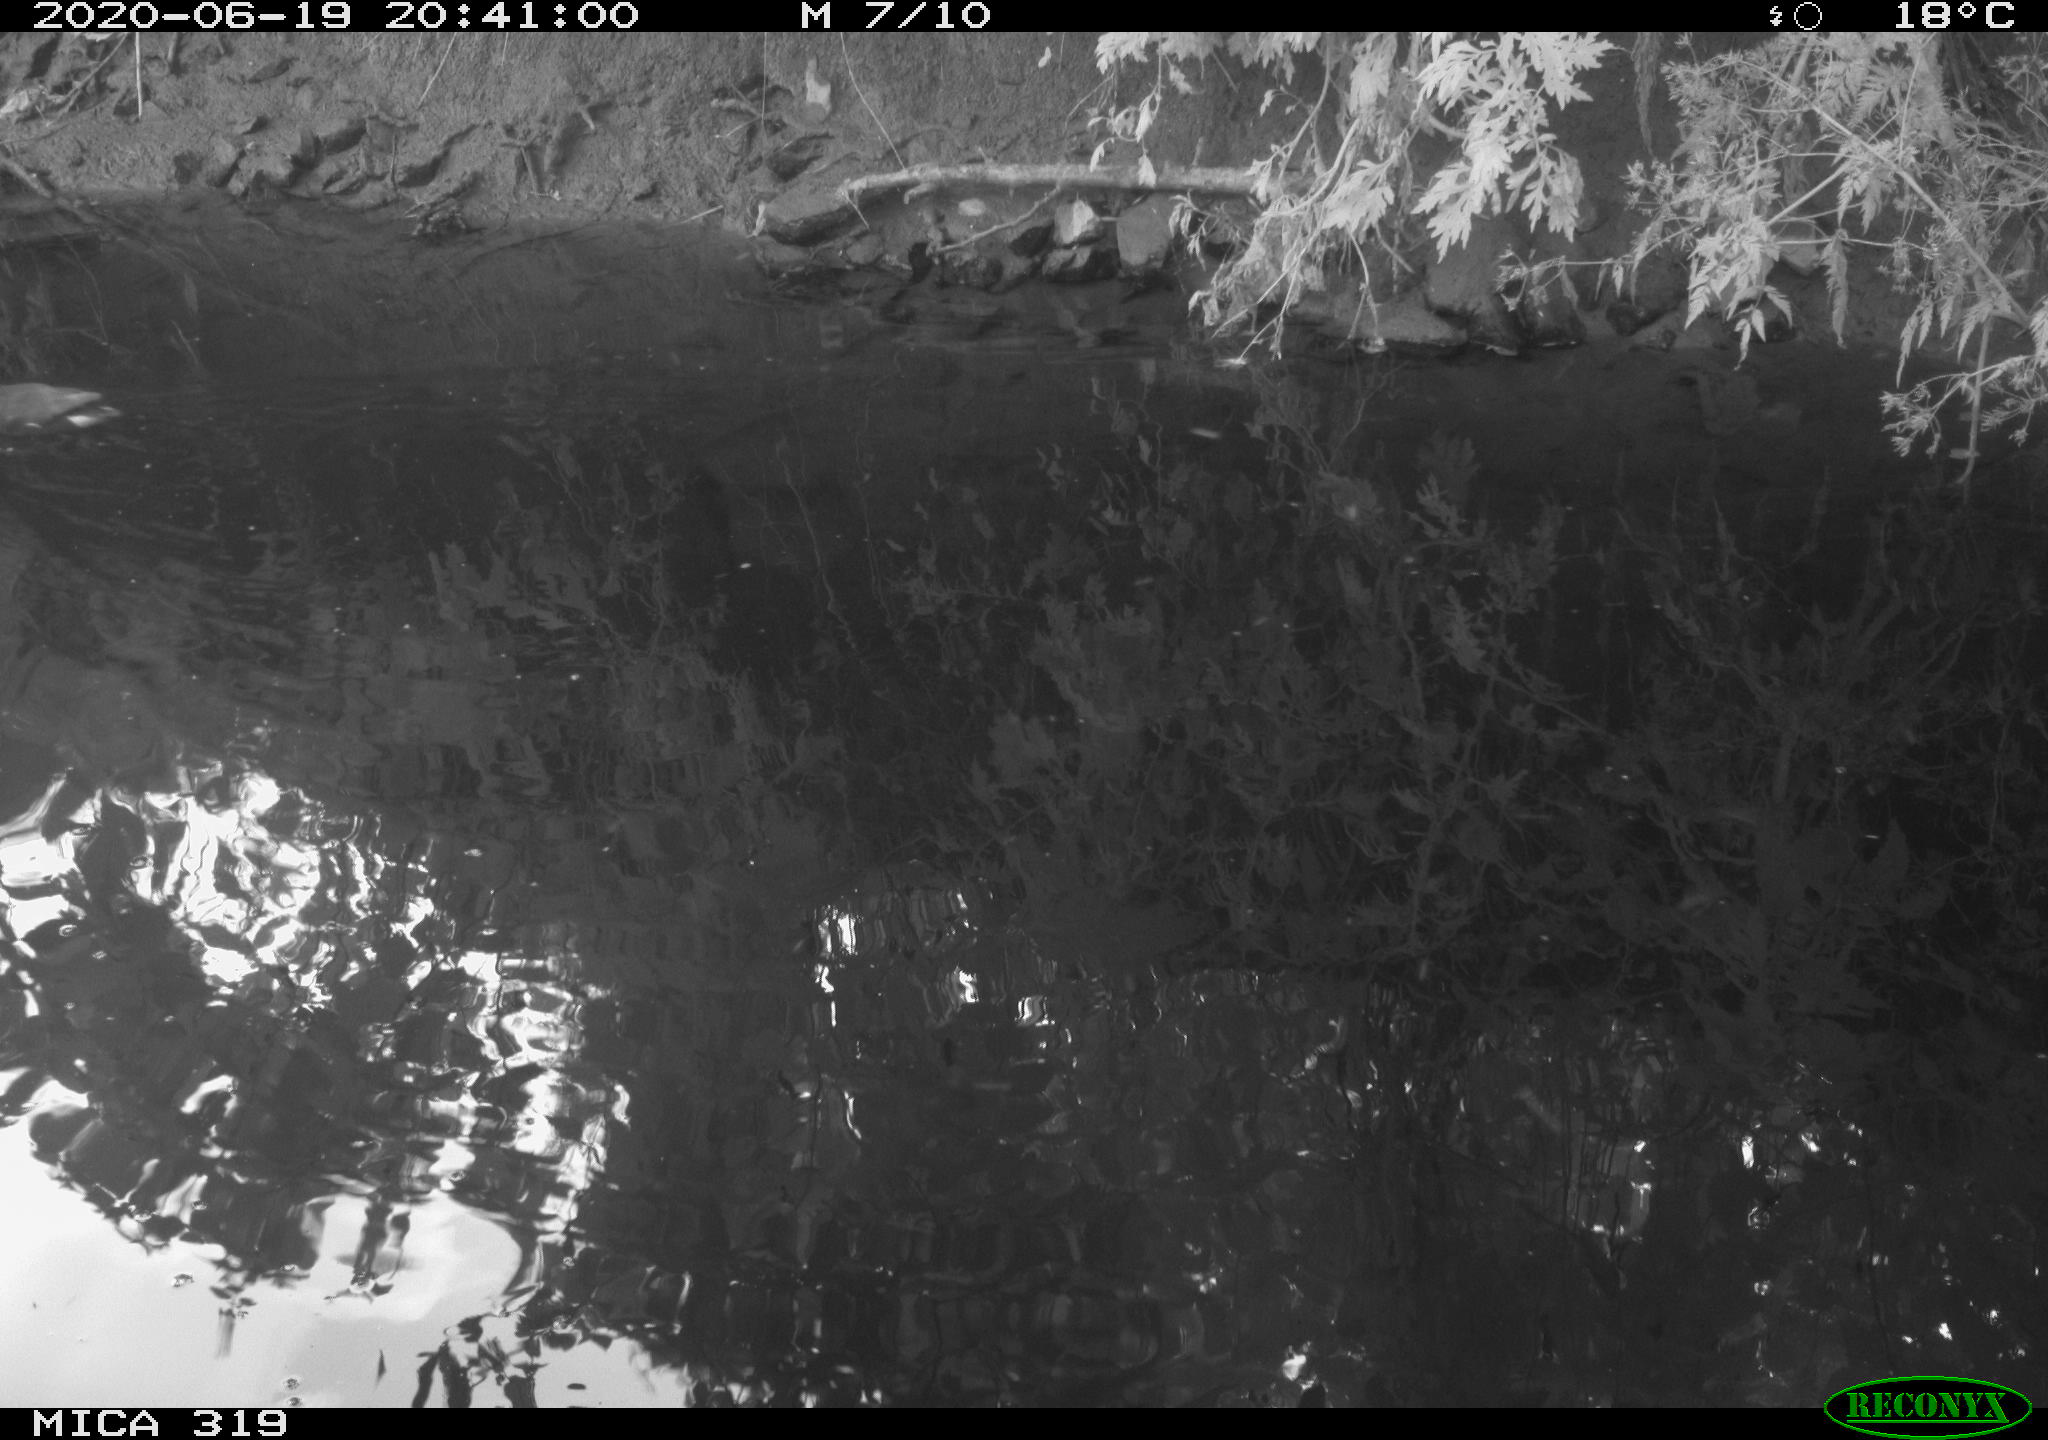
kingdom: Animalia
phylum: Chordata
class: Aves
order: Gruiformes
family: Rallidae
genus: Gallinula
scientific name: Gallinula chloropus
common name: Common moorhen
